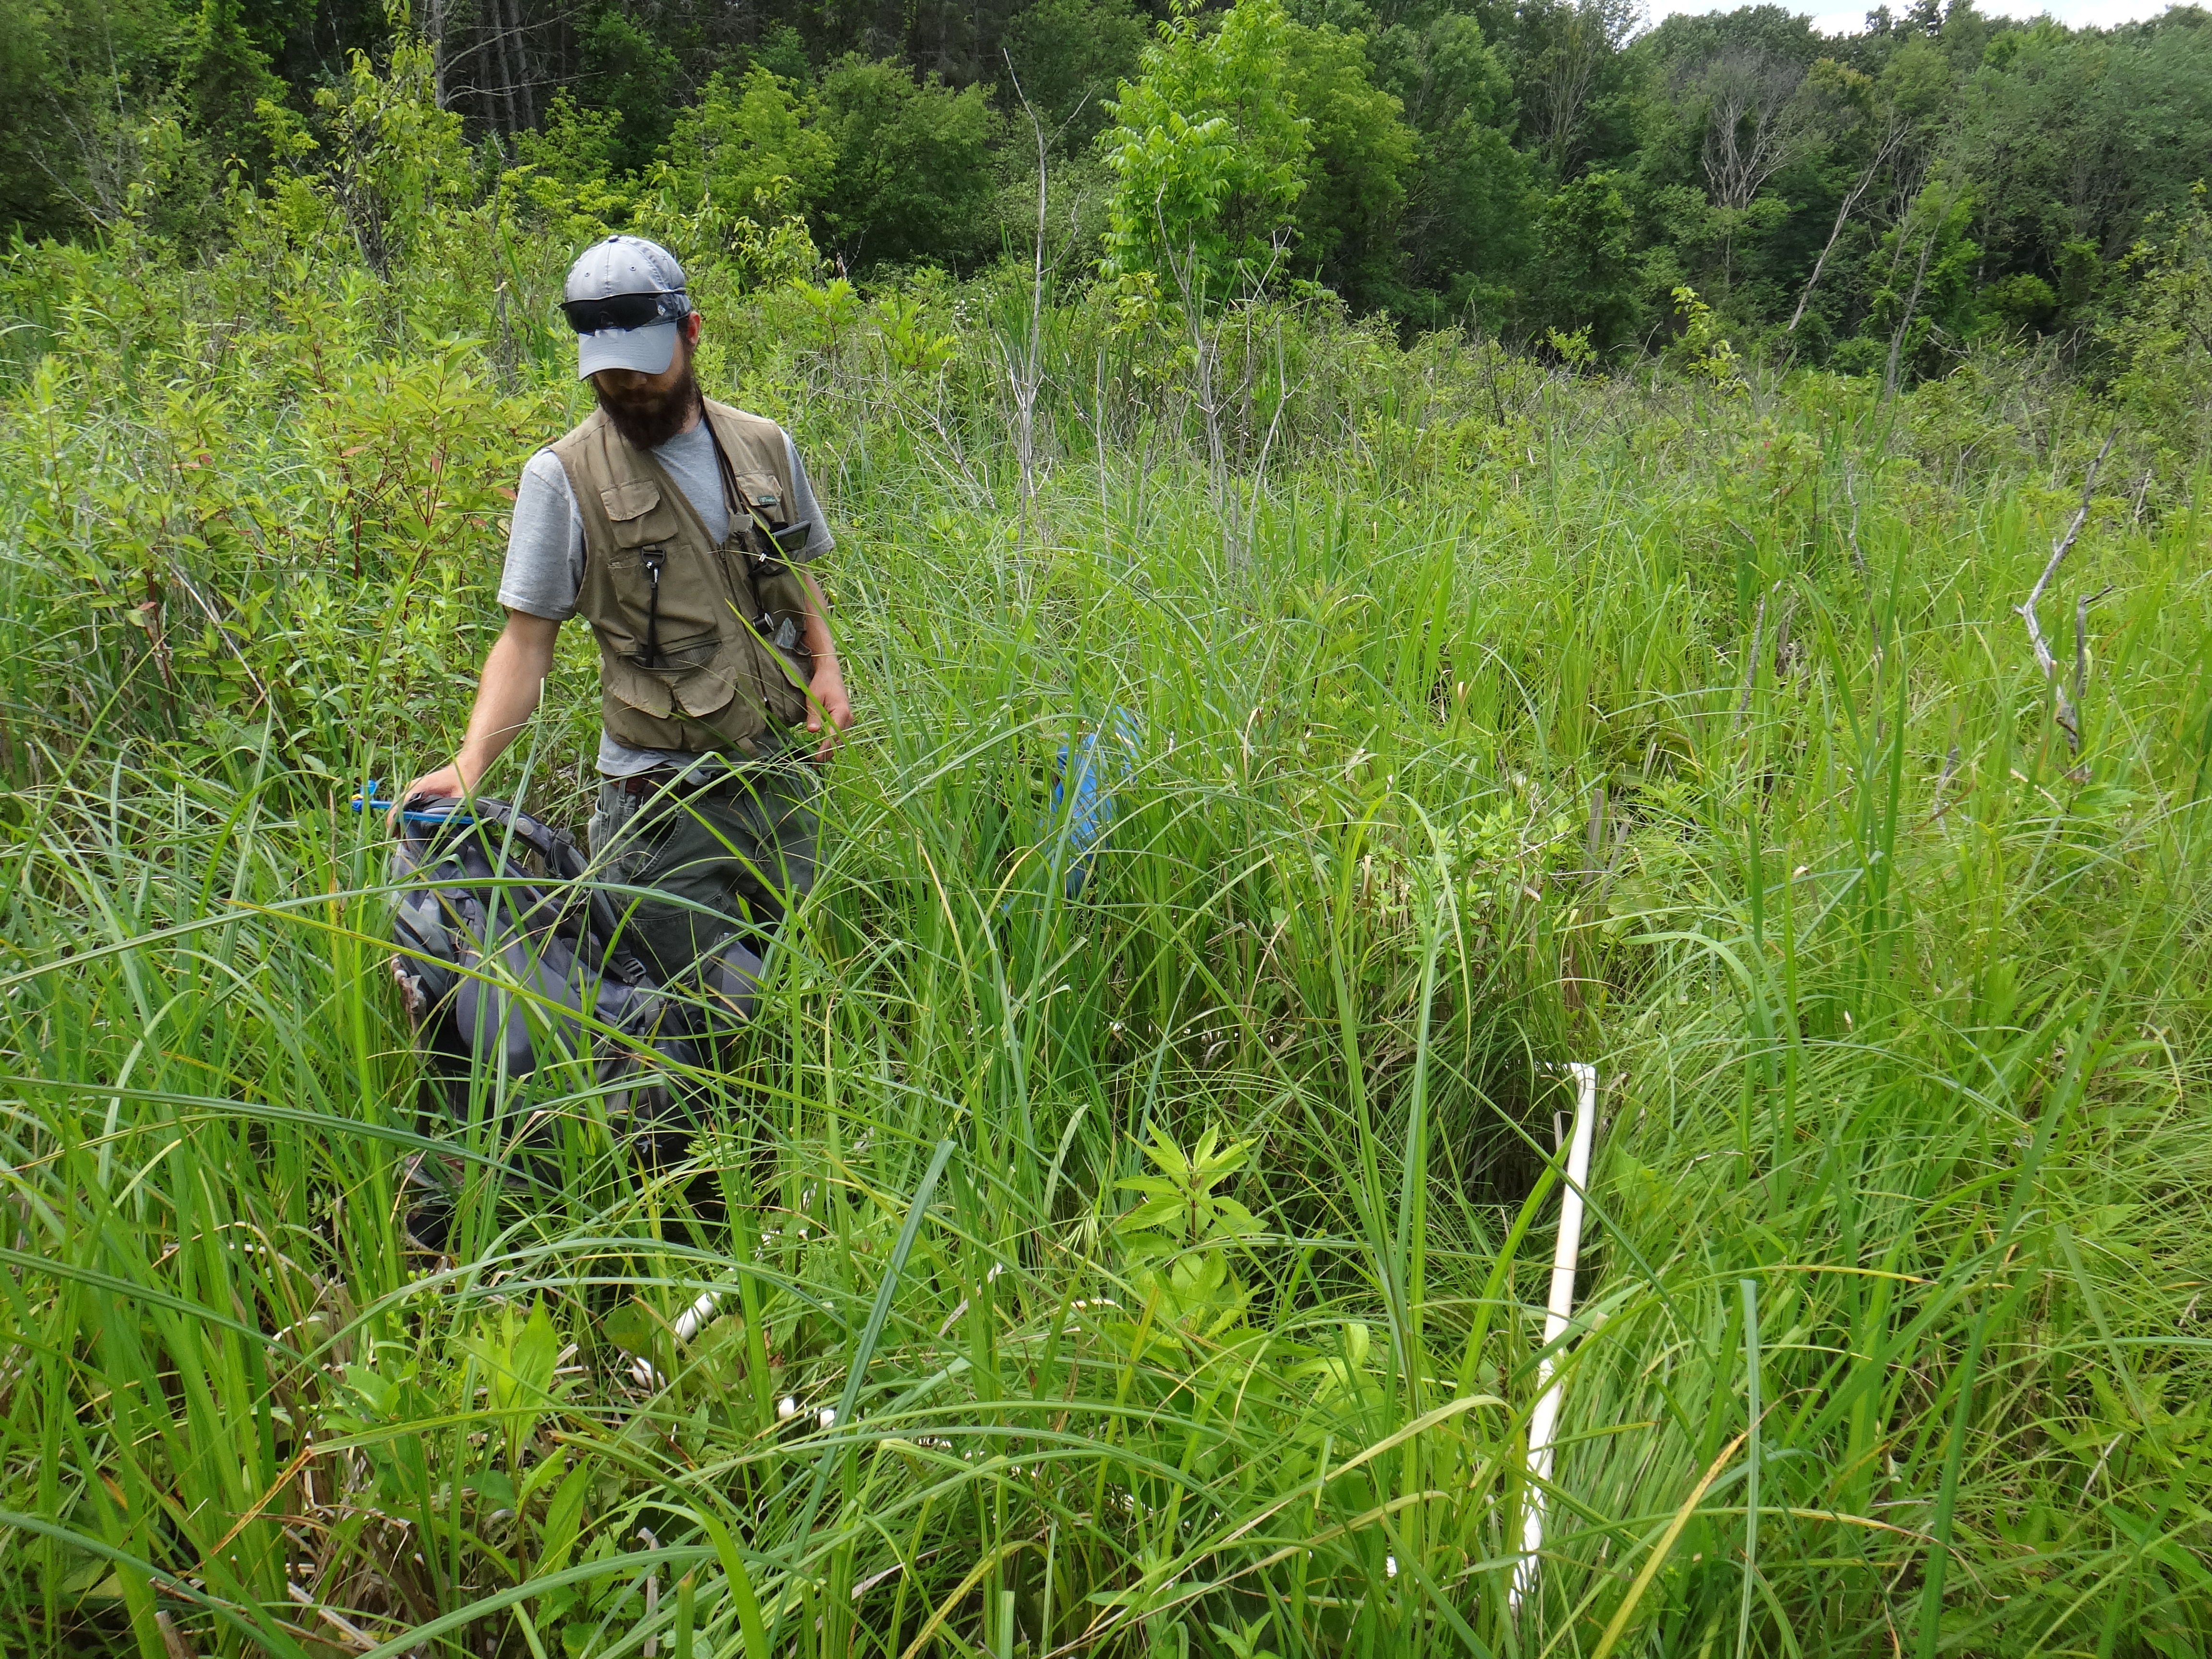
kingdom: Plantae
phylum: Tracheophyta
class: Magnoliopsida
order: Asterales
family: Asteraceae
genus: Eupatorium
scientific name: Eupatorium perfoliatum
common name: Boneset
